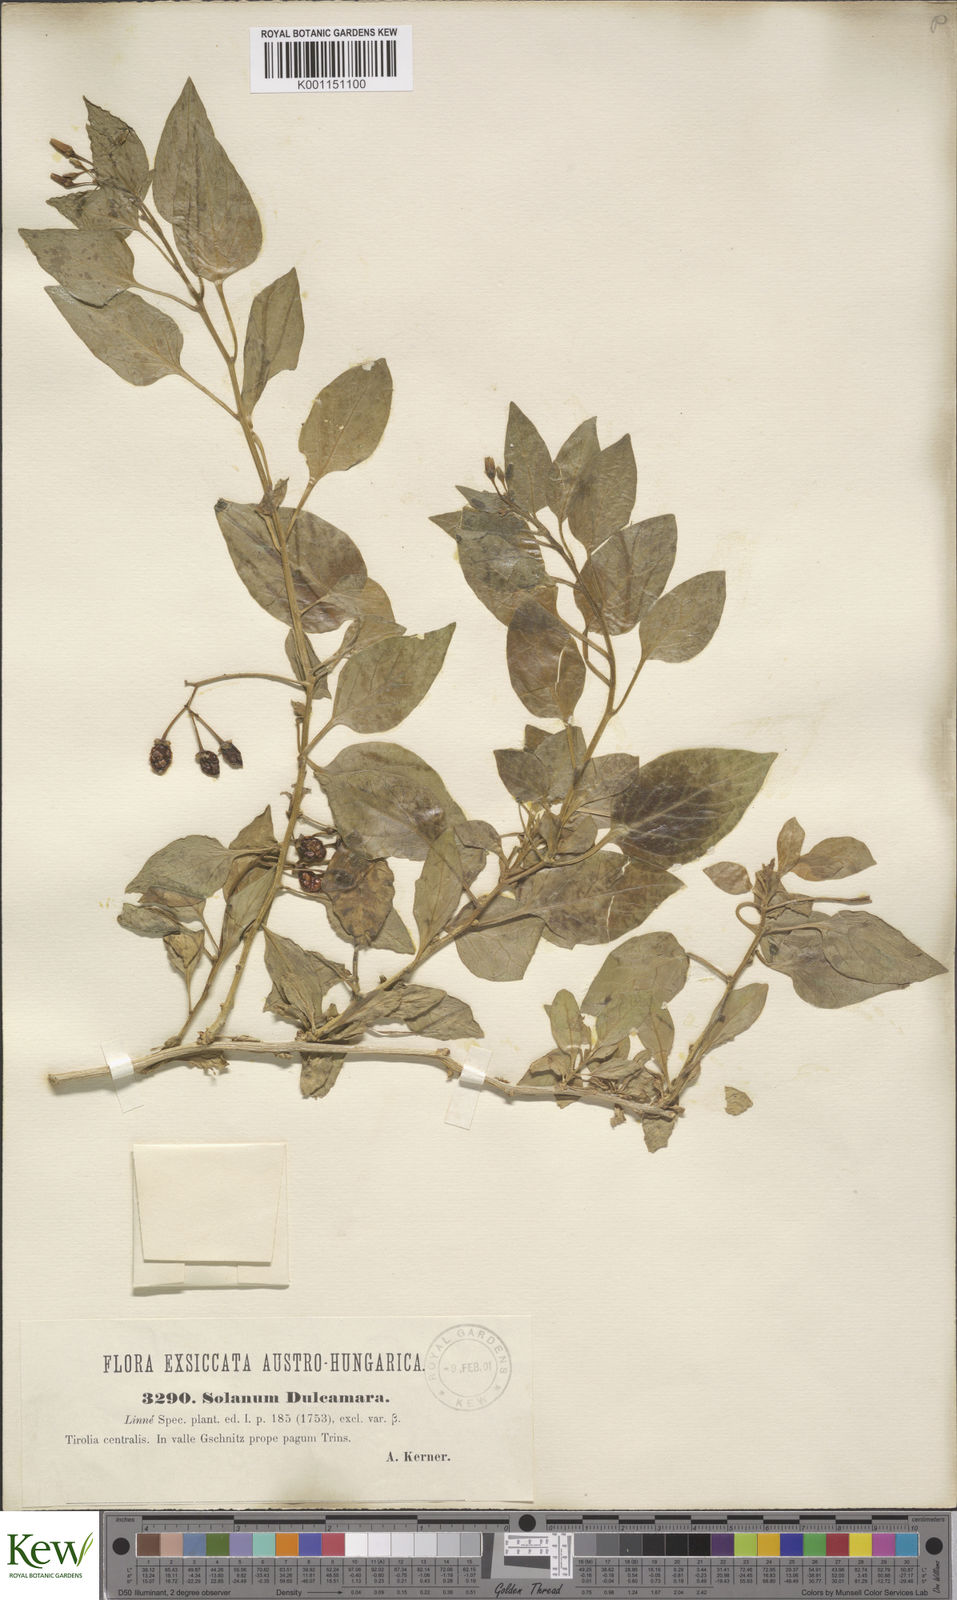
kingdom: Plantae
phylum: Tracheophyta
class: Magnoliopsida
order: Solanales
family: Solanaceae
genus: Solanum
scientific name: Solanum dulcamara
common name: Climbing nightshade
